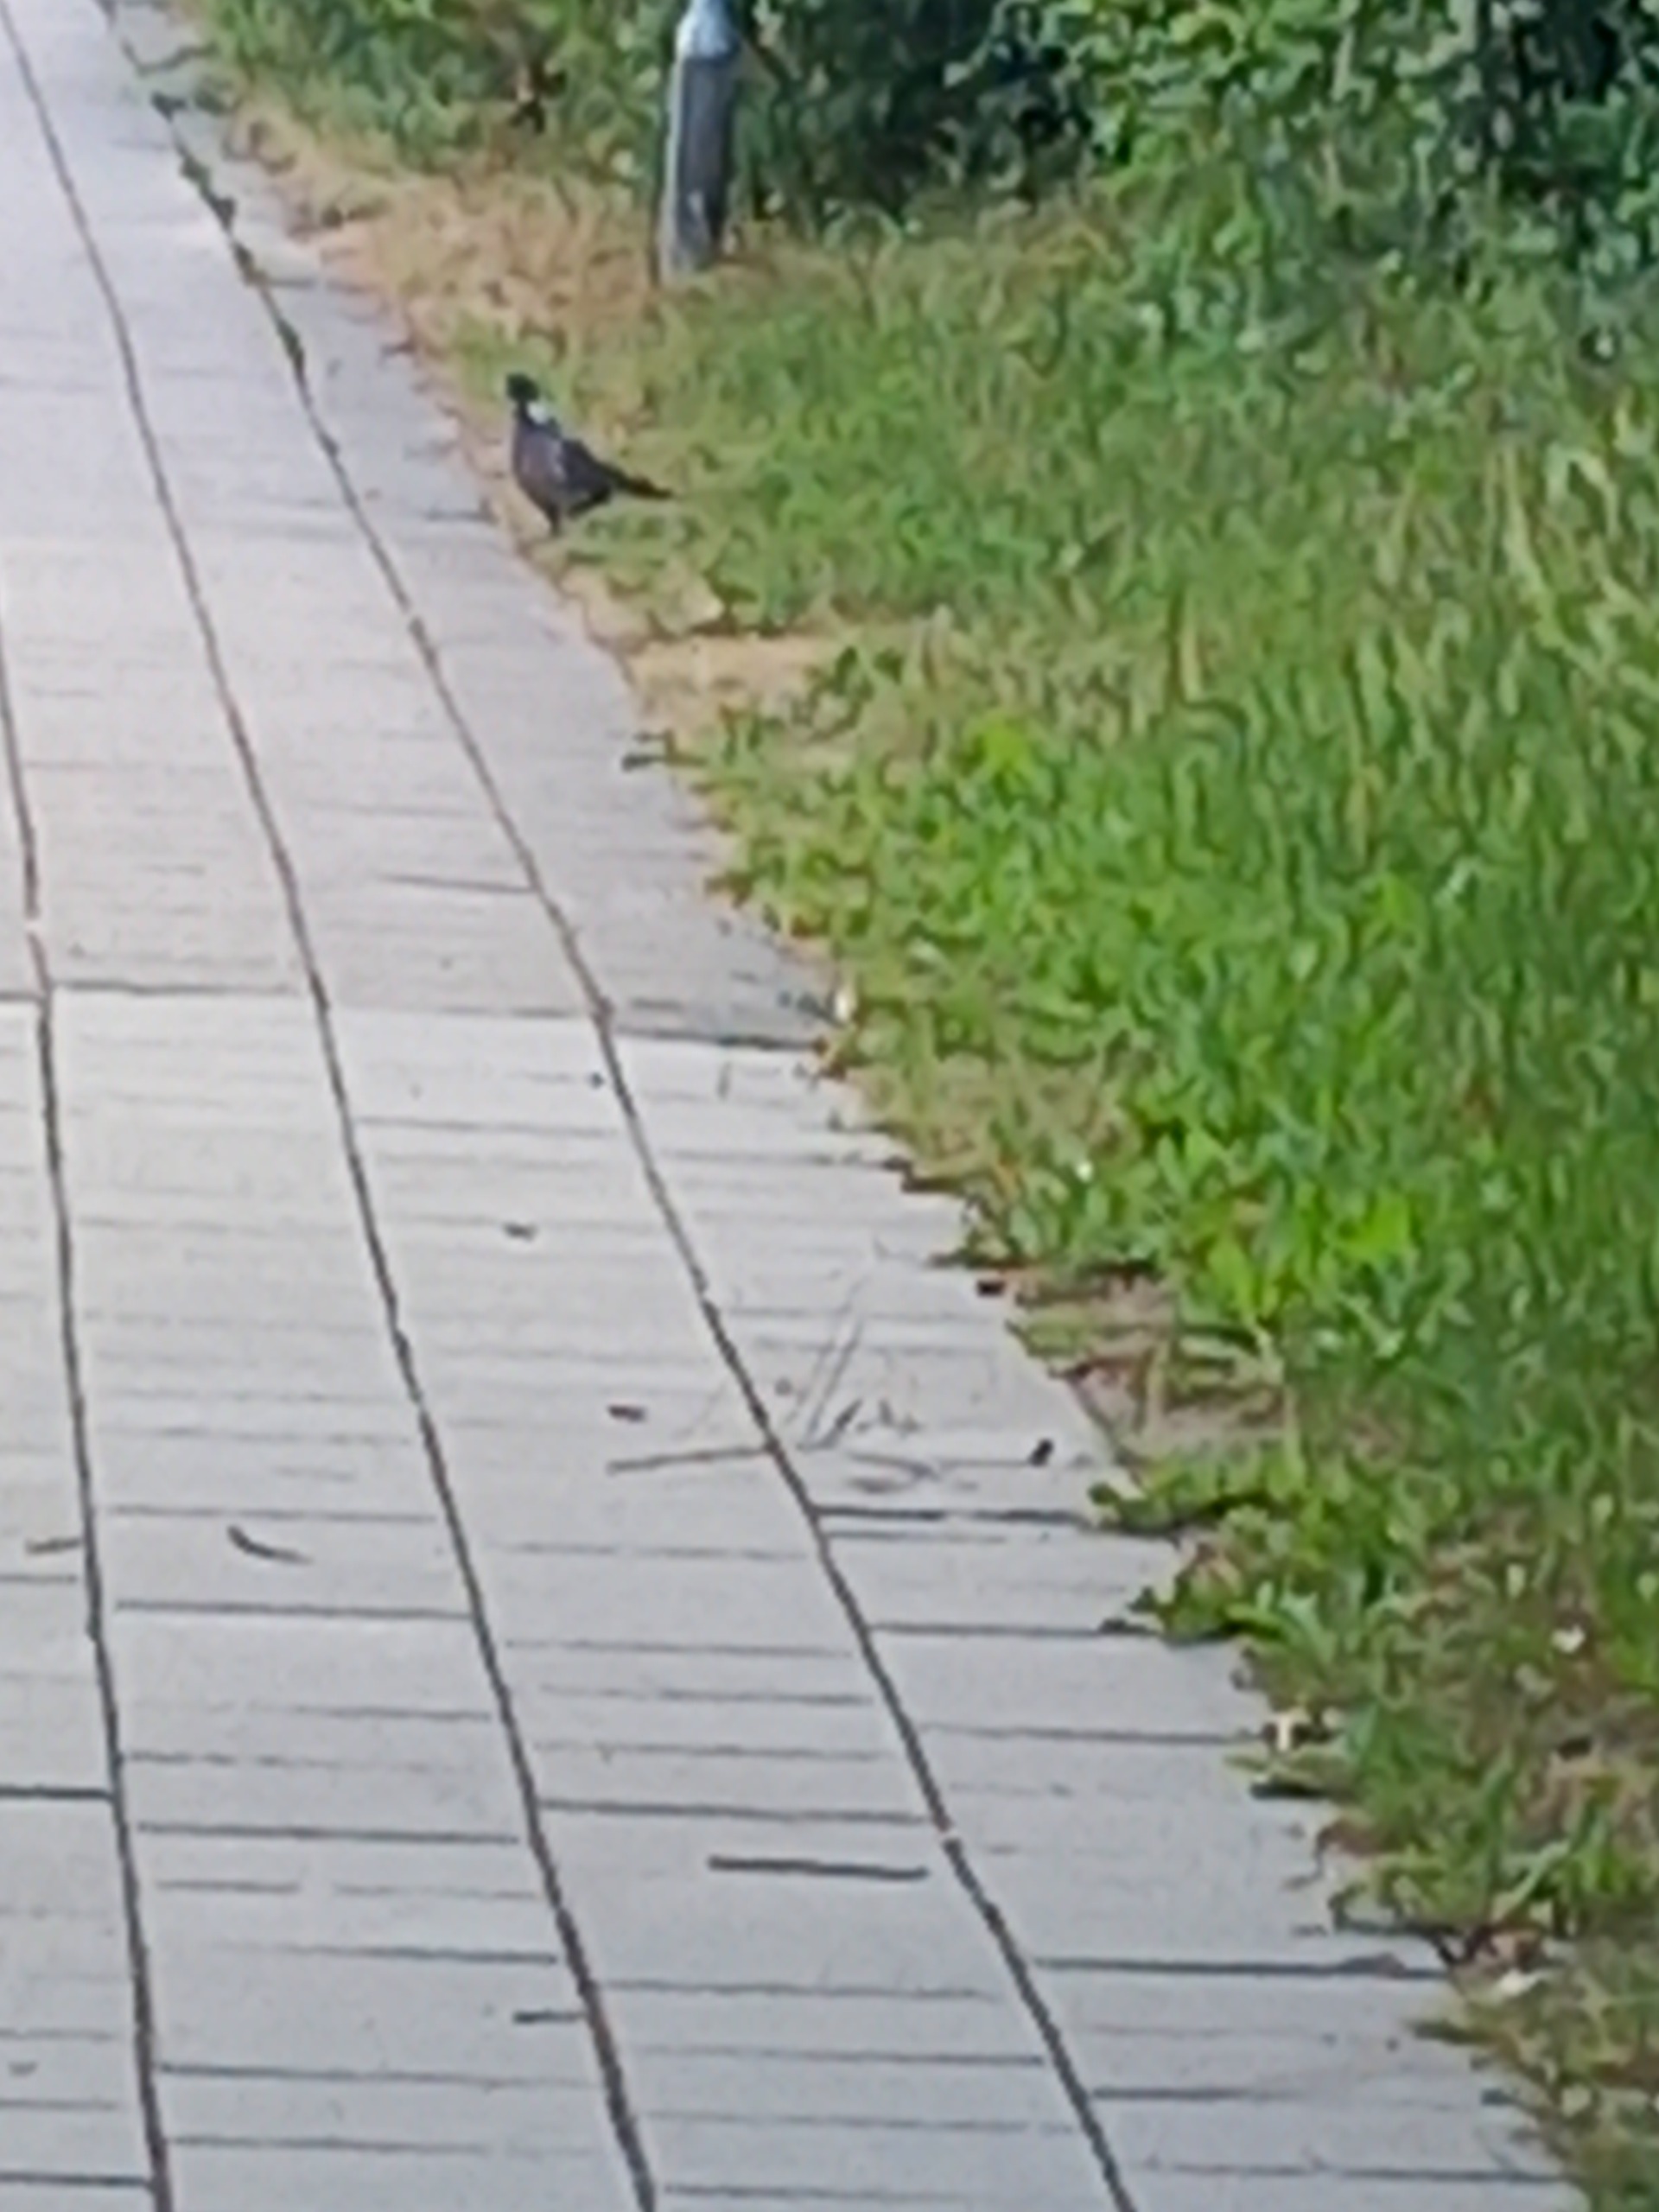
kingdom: Animalia
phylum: Chordata
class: Aves
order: Columbiformes
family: Columbidae
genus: Columba
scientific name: Columba palumbus
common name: Ringdue
